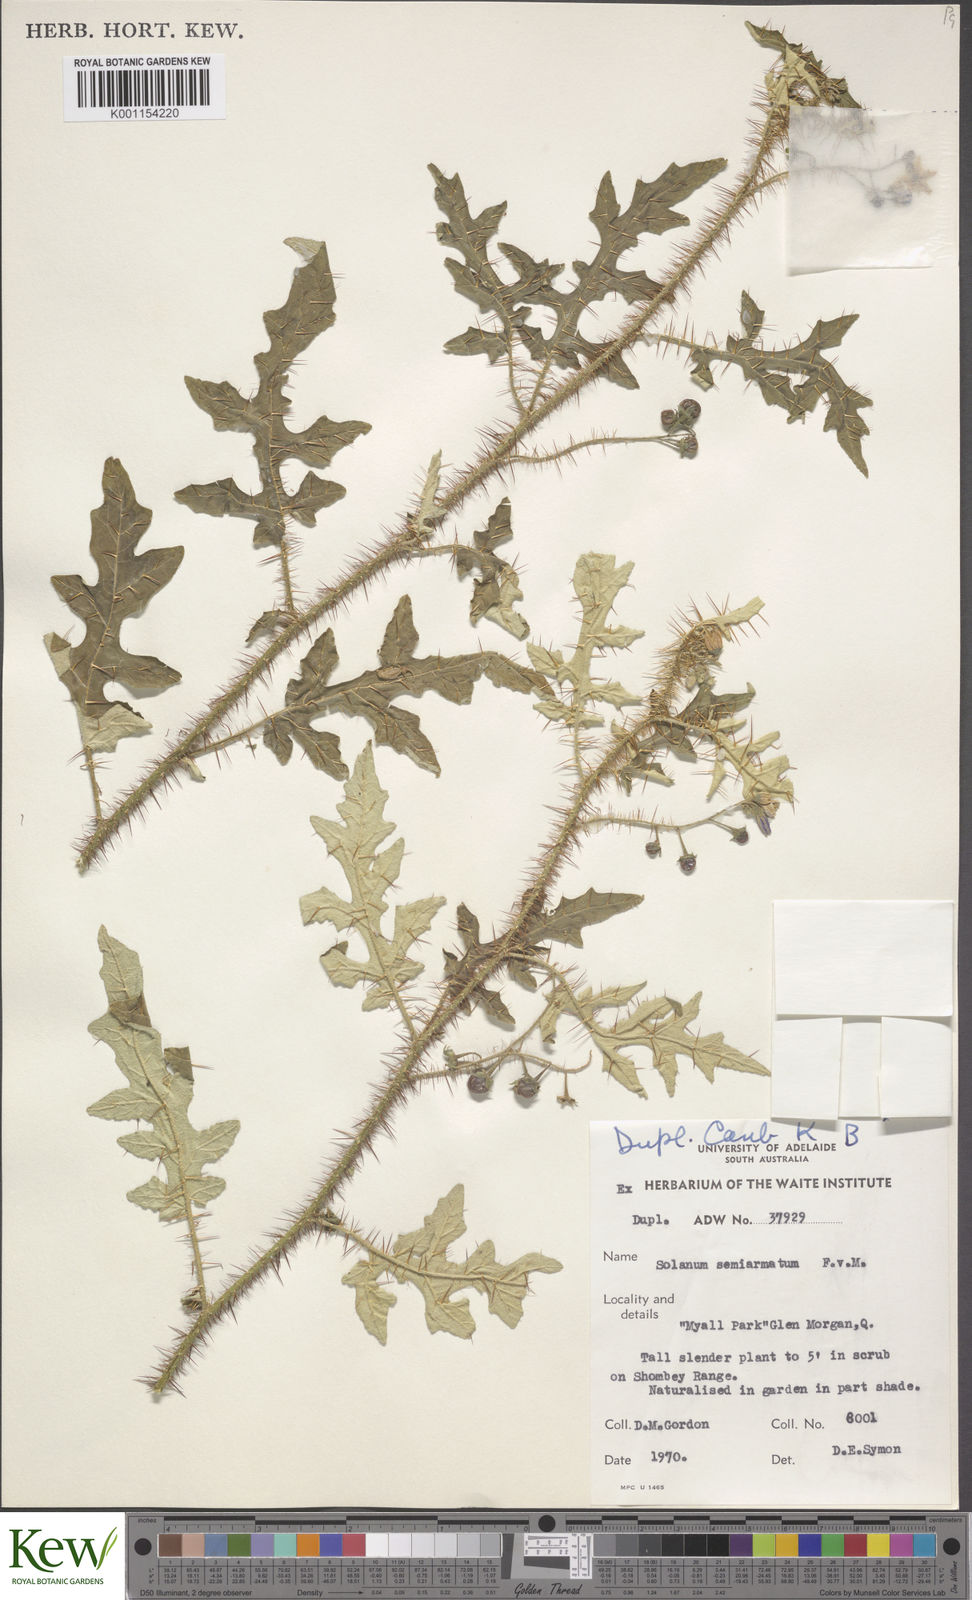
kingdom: Plantae
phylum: Tracheophyta
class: Magnoliopsida
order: Solanales
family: Solanaceae
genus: Solanum
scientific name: Solanum semiarmatum
